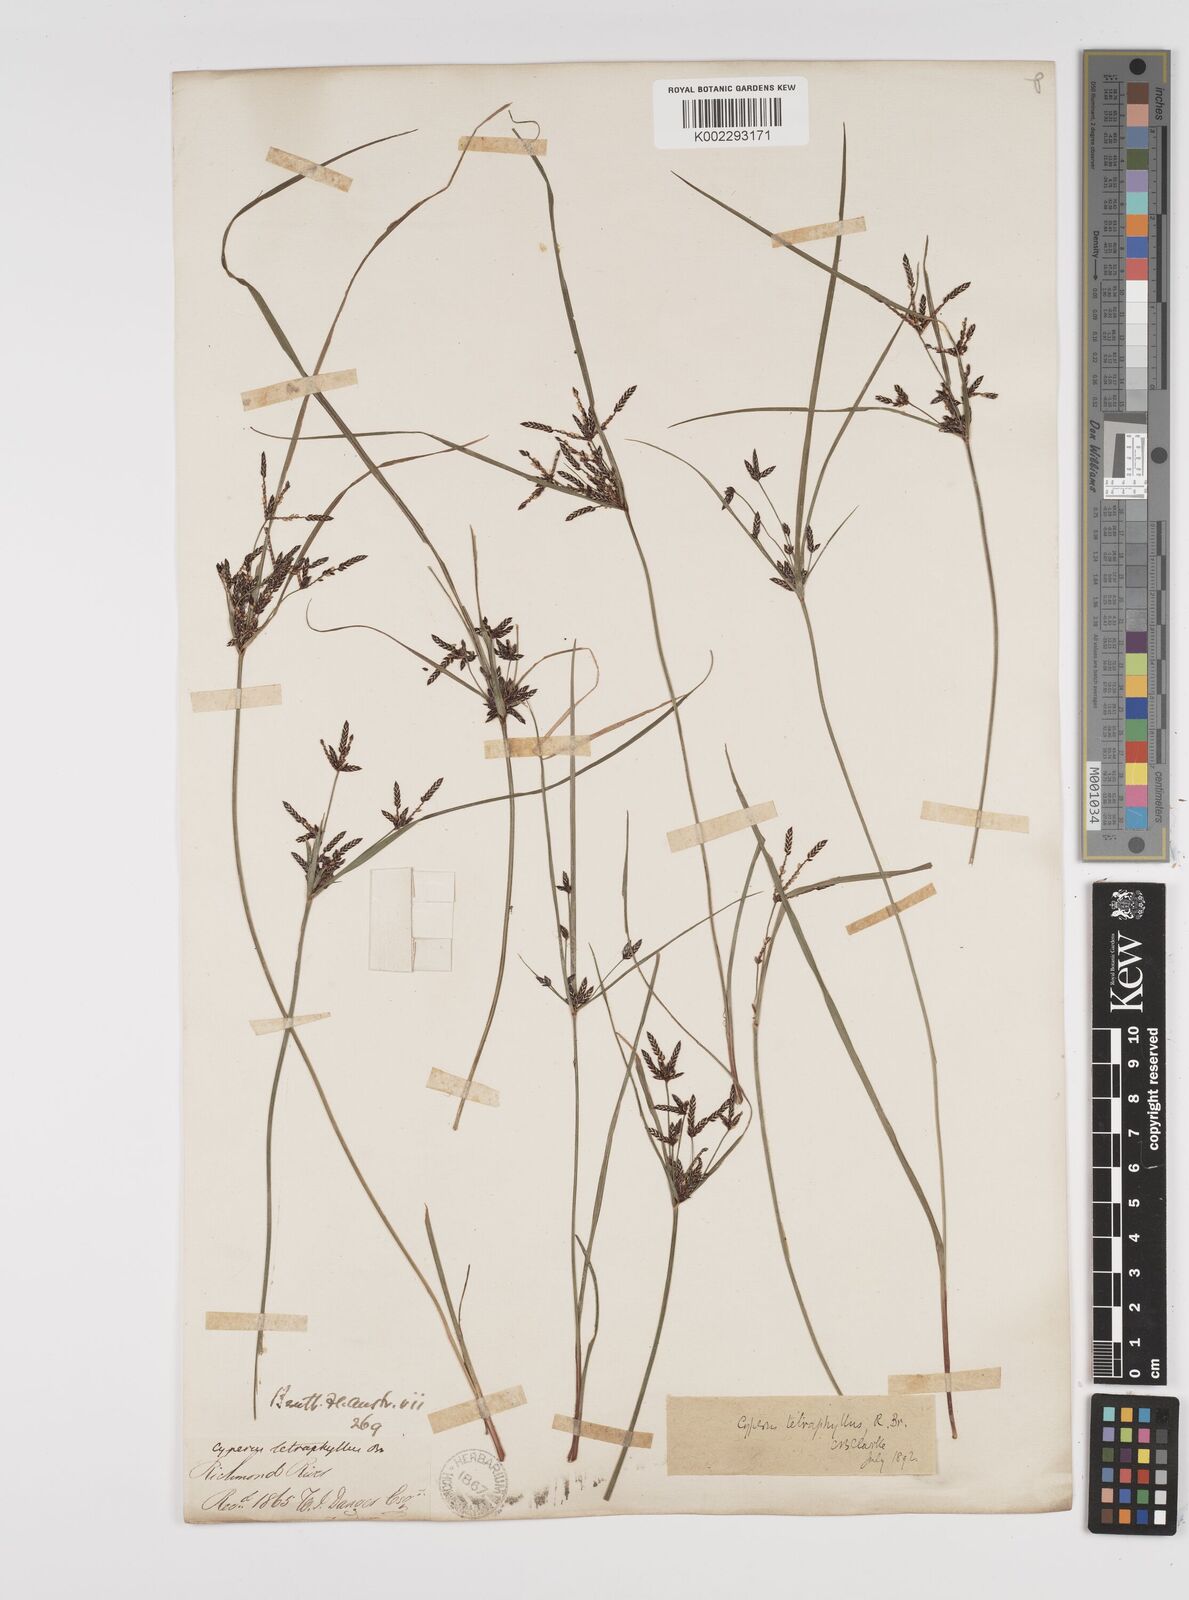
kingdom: Plantae
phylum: Tracheophyta
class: Liliopsida
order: Poales
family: Cyperaceae
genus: Cyperus
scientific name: Cyperus tetraphyllus
